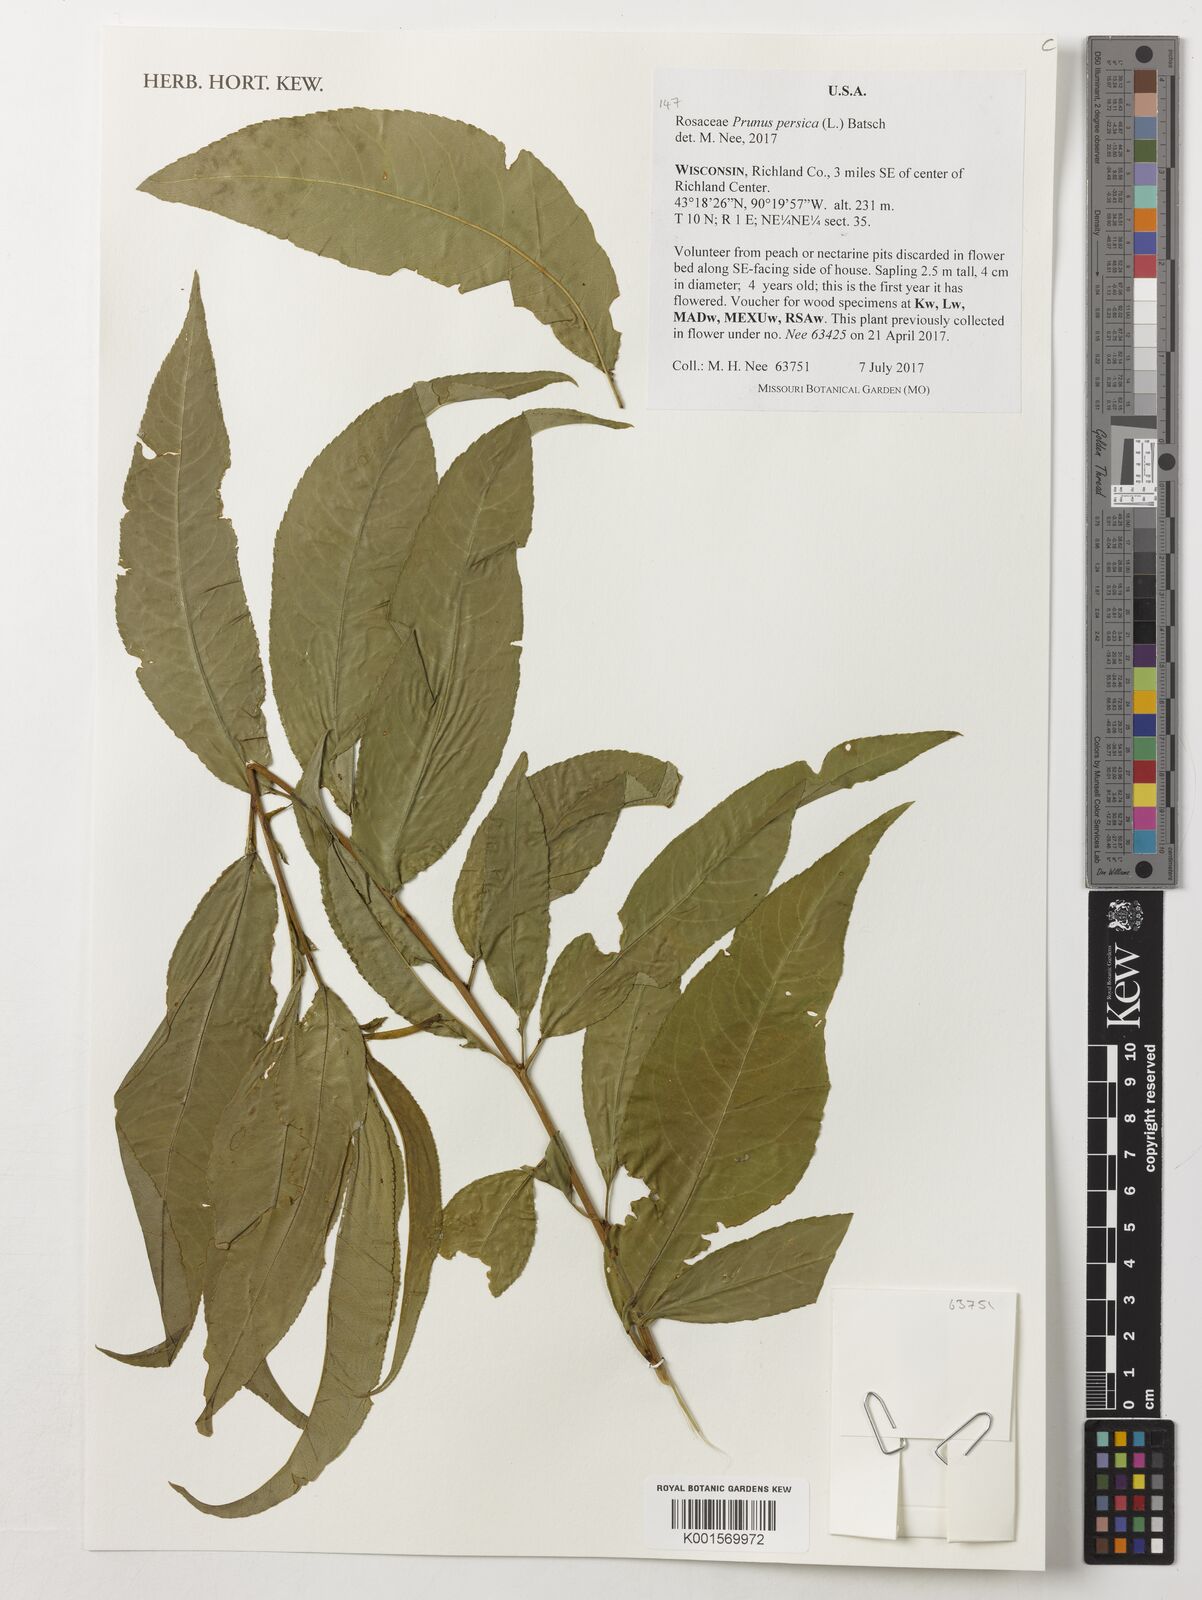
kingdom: Plantae
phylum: Tracheophyta
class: Magnoliopsida
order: Rosales
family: Rosaceae
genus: Prunus
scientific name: Prunus persica
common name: Peach
